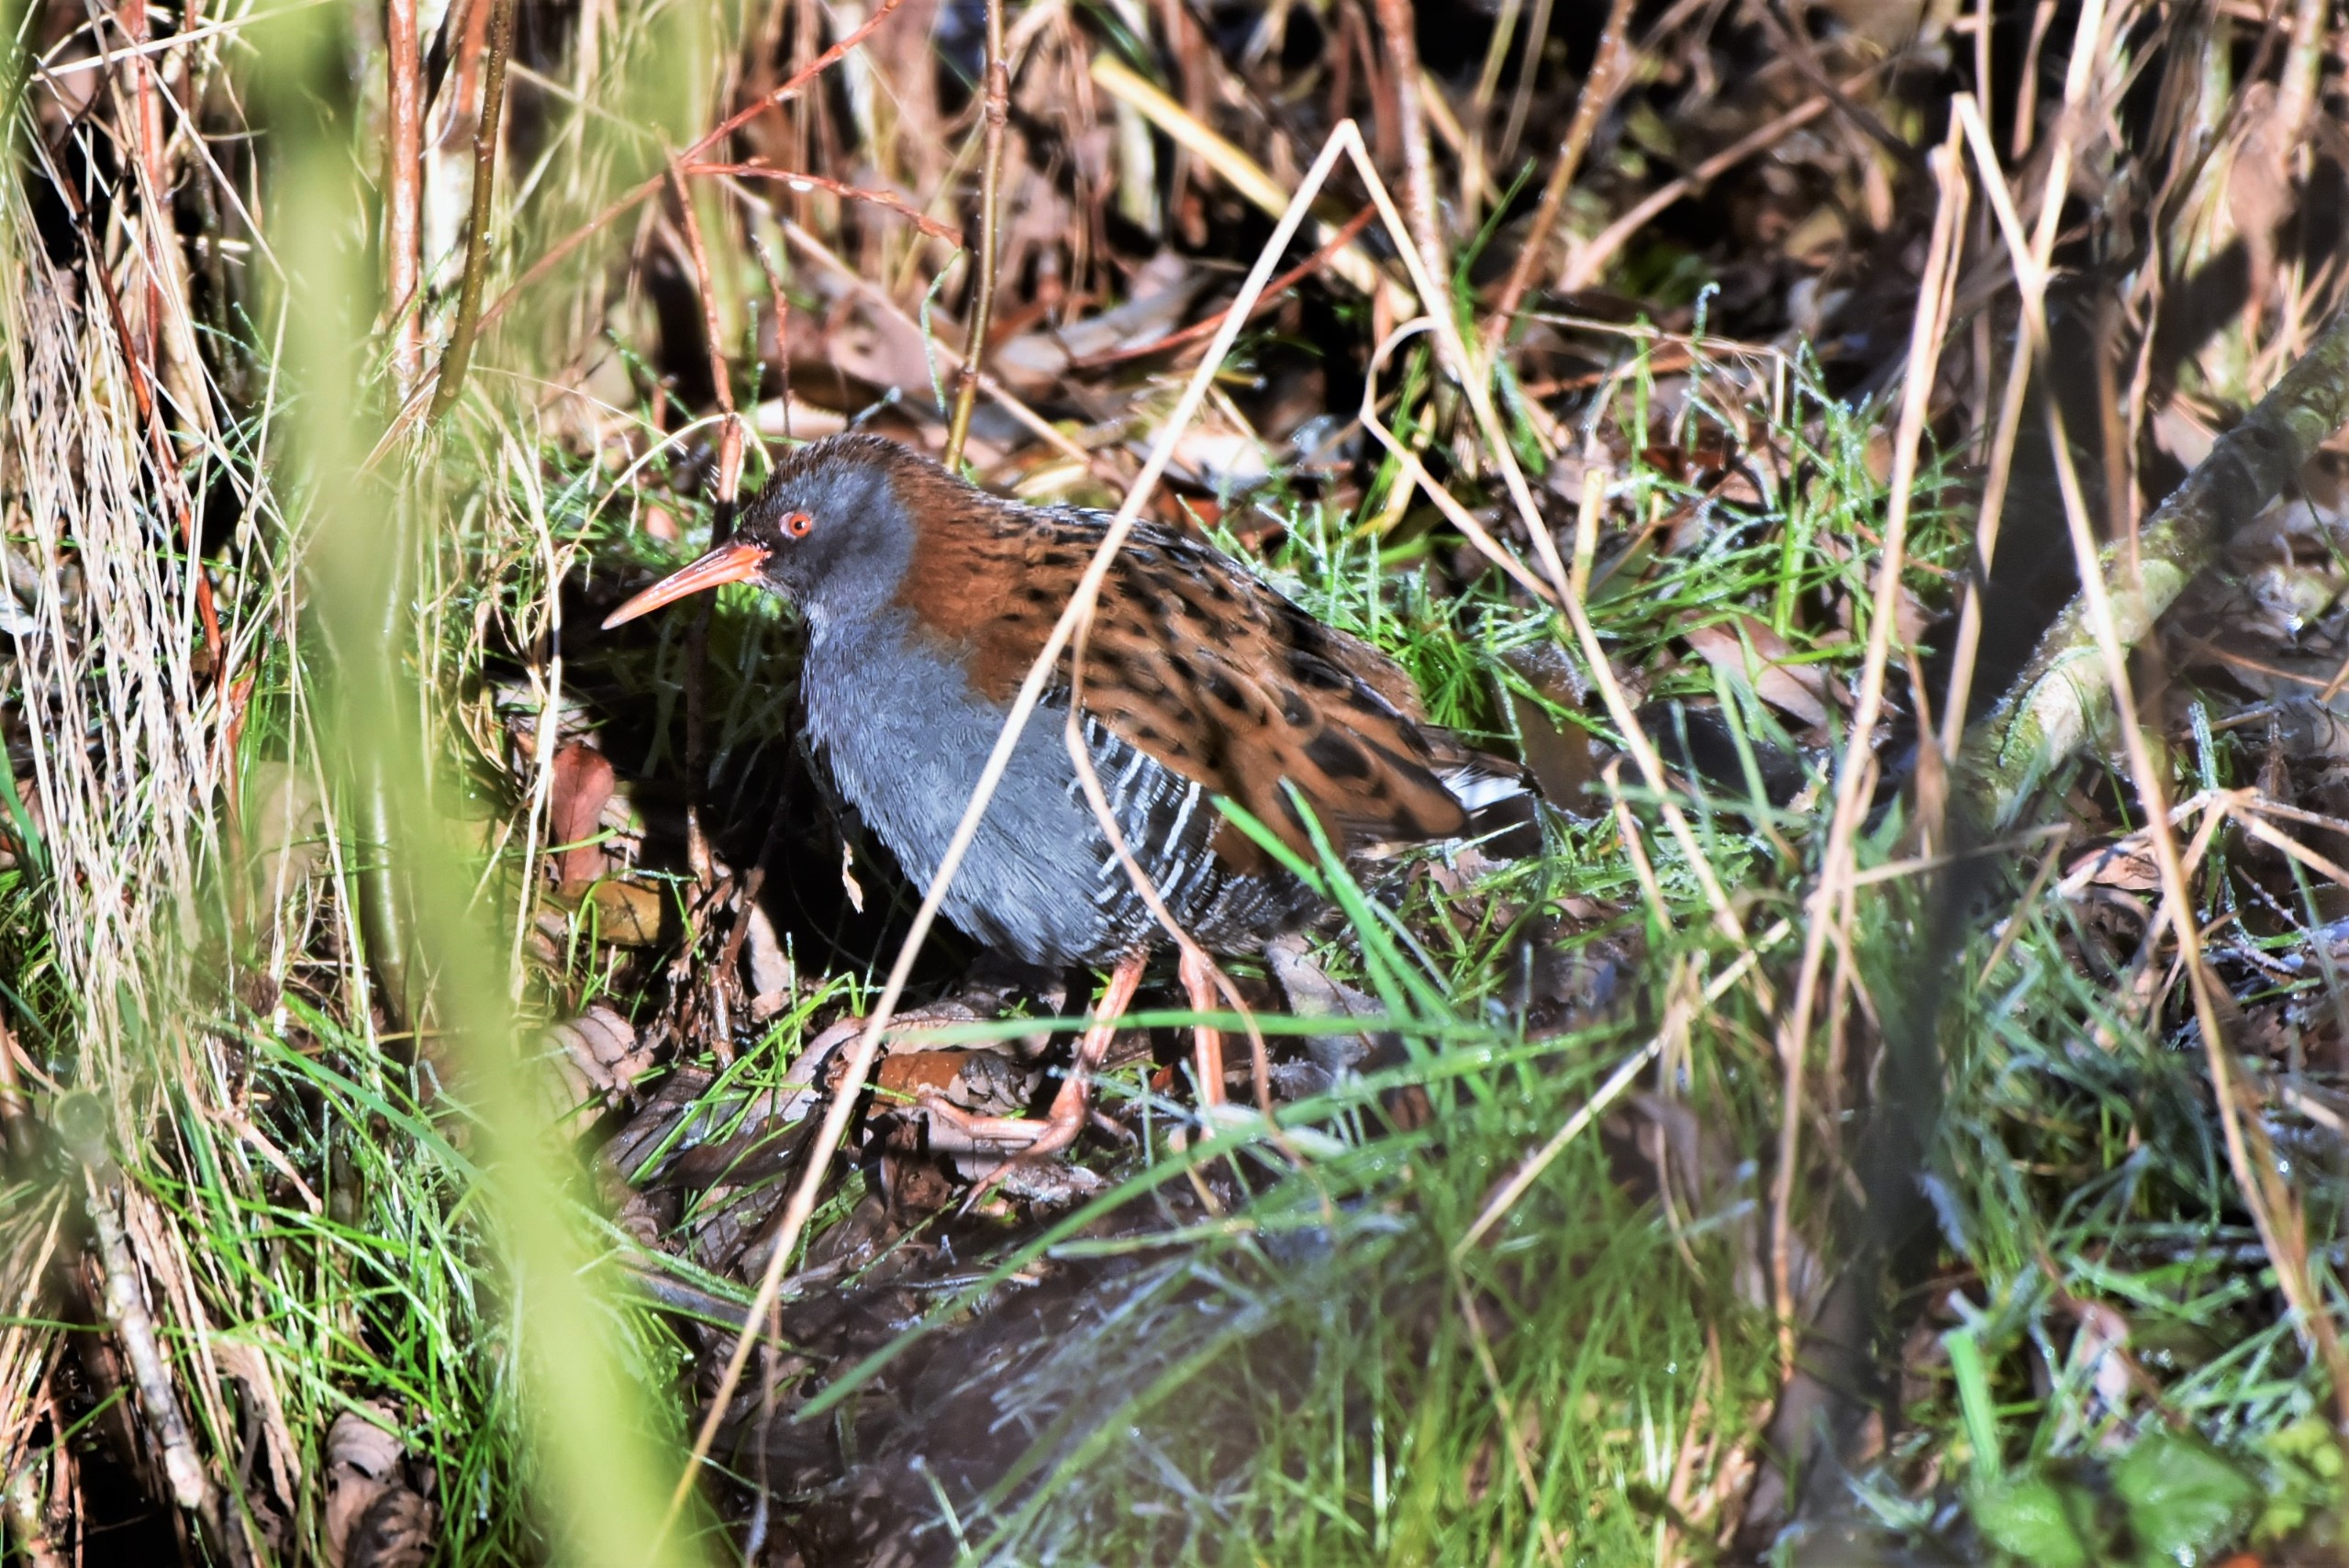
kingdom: Animalia
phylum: Chordata
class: Aves
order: Gruiformes
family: Rallidae
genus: Rallus
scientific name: Rallus aquaticus
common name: Vandrikse
